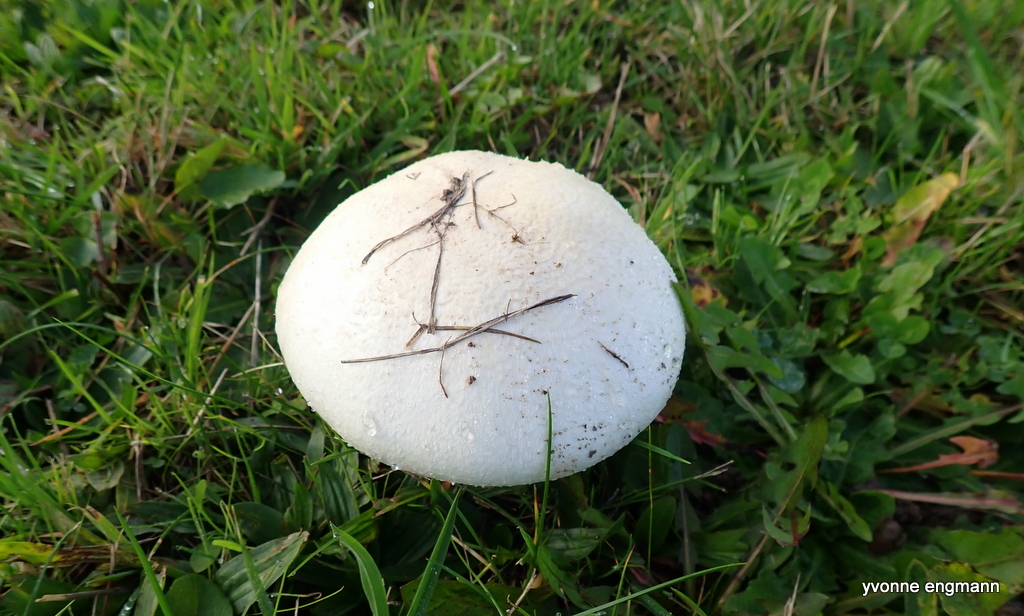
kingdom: Fungi
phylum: Basidiomycota
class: Agaricomycetes
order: Agaricales
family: Agaricaceae
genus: Agaricus
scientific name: Agaricus campestris
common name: mark-champignon
